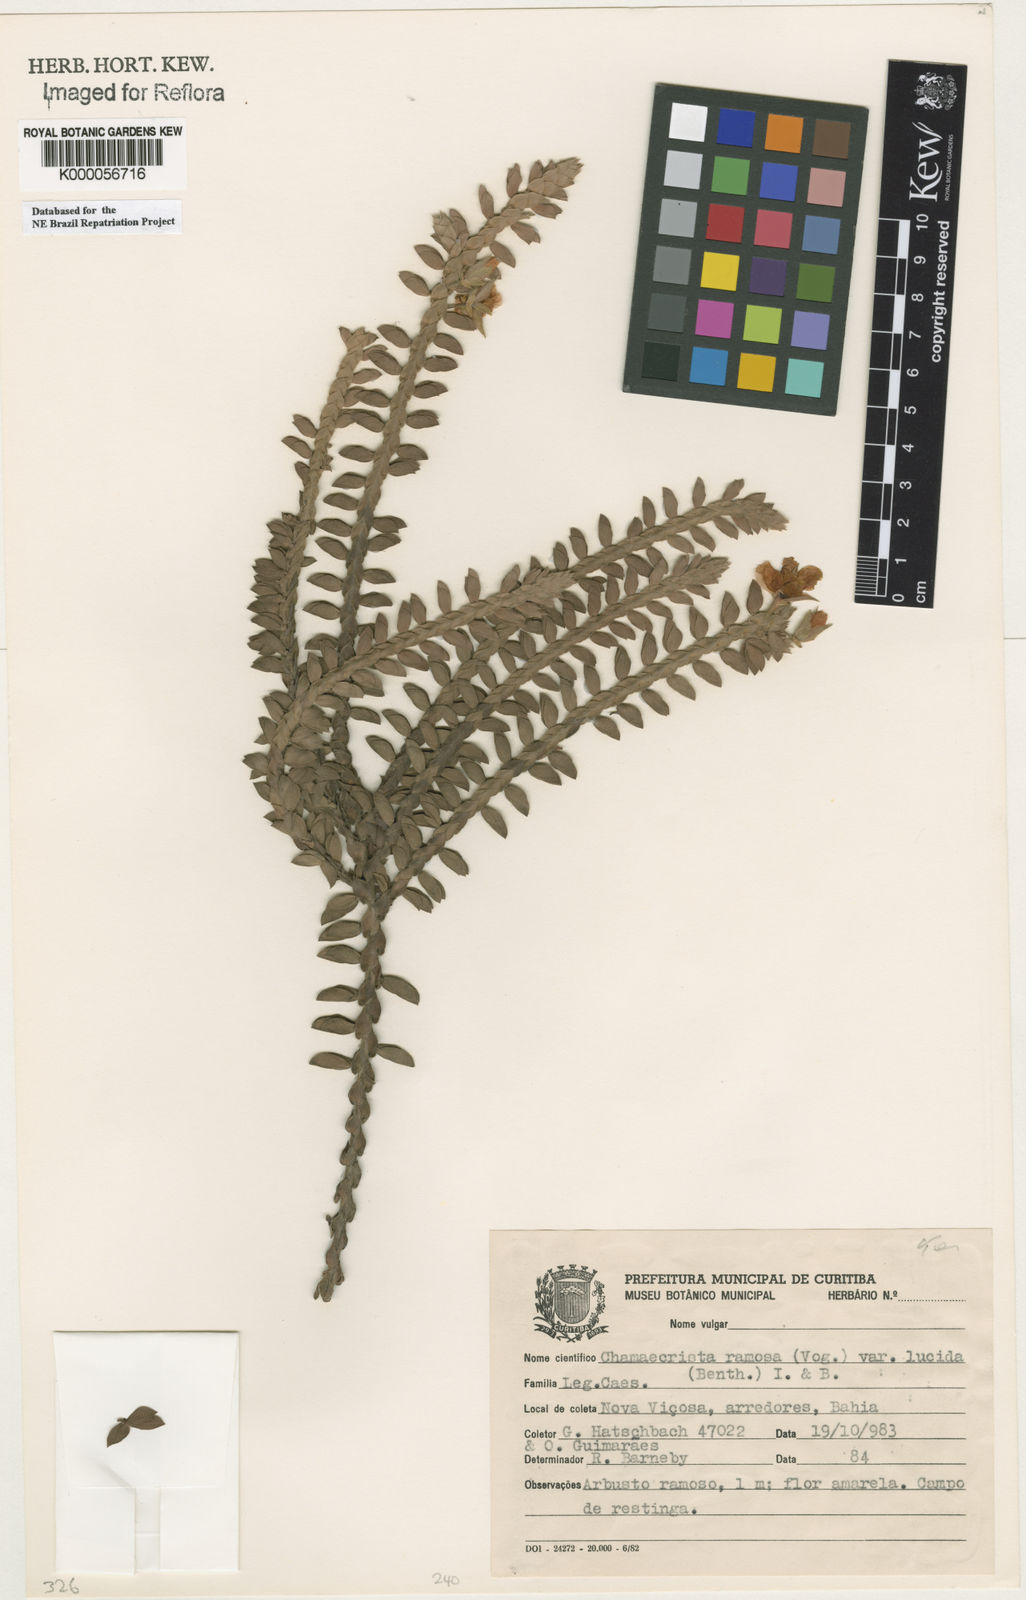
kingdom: Plantae
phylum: Tracheophyta
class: Magnoliopsida
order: Fabales
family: Fabaceae
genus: Chamaecrista
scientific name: Chamaecrista ramosa
